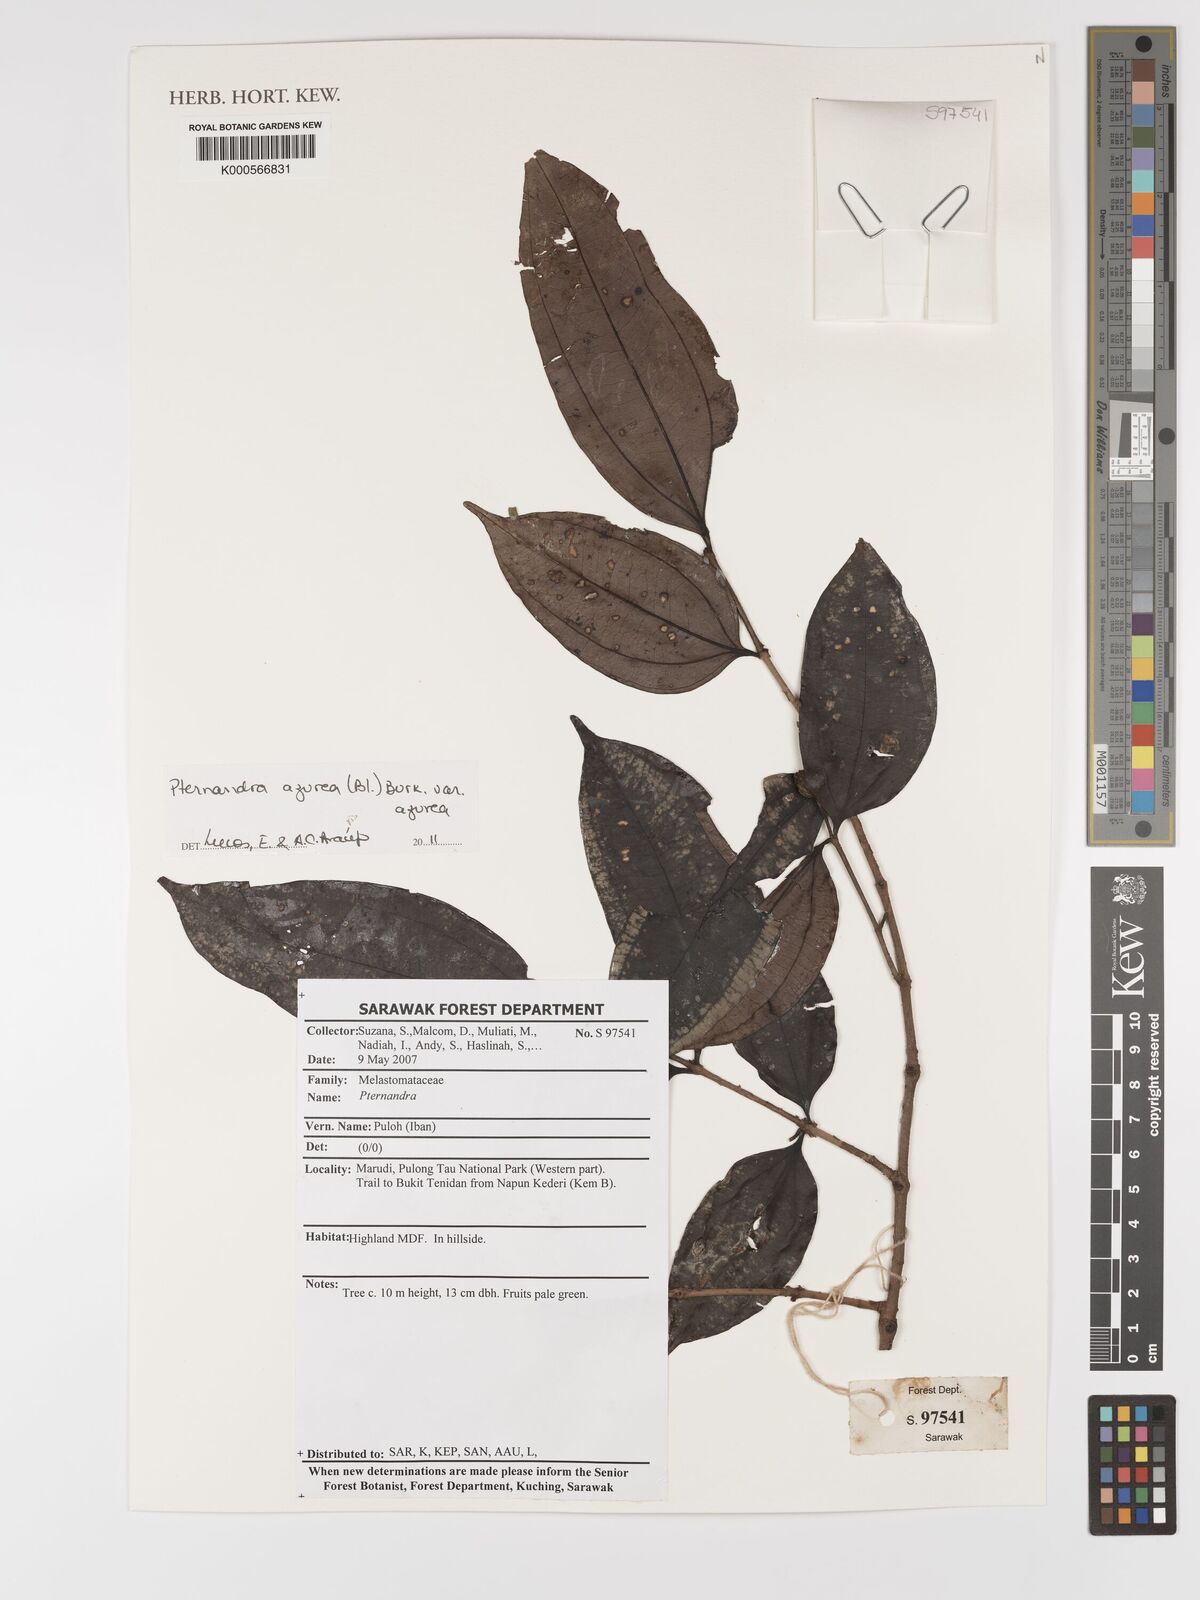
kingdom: Plantae
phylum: Tracheophyta
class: Magnoliopsida
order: Myrtales
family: Melastomataceae
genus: Pternandra
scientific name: Pternandra azurea
